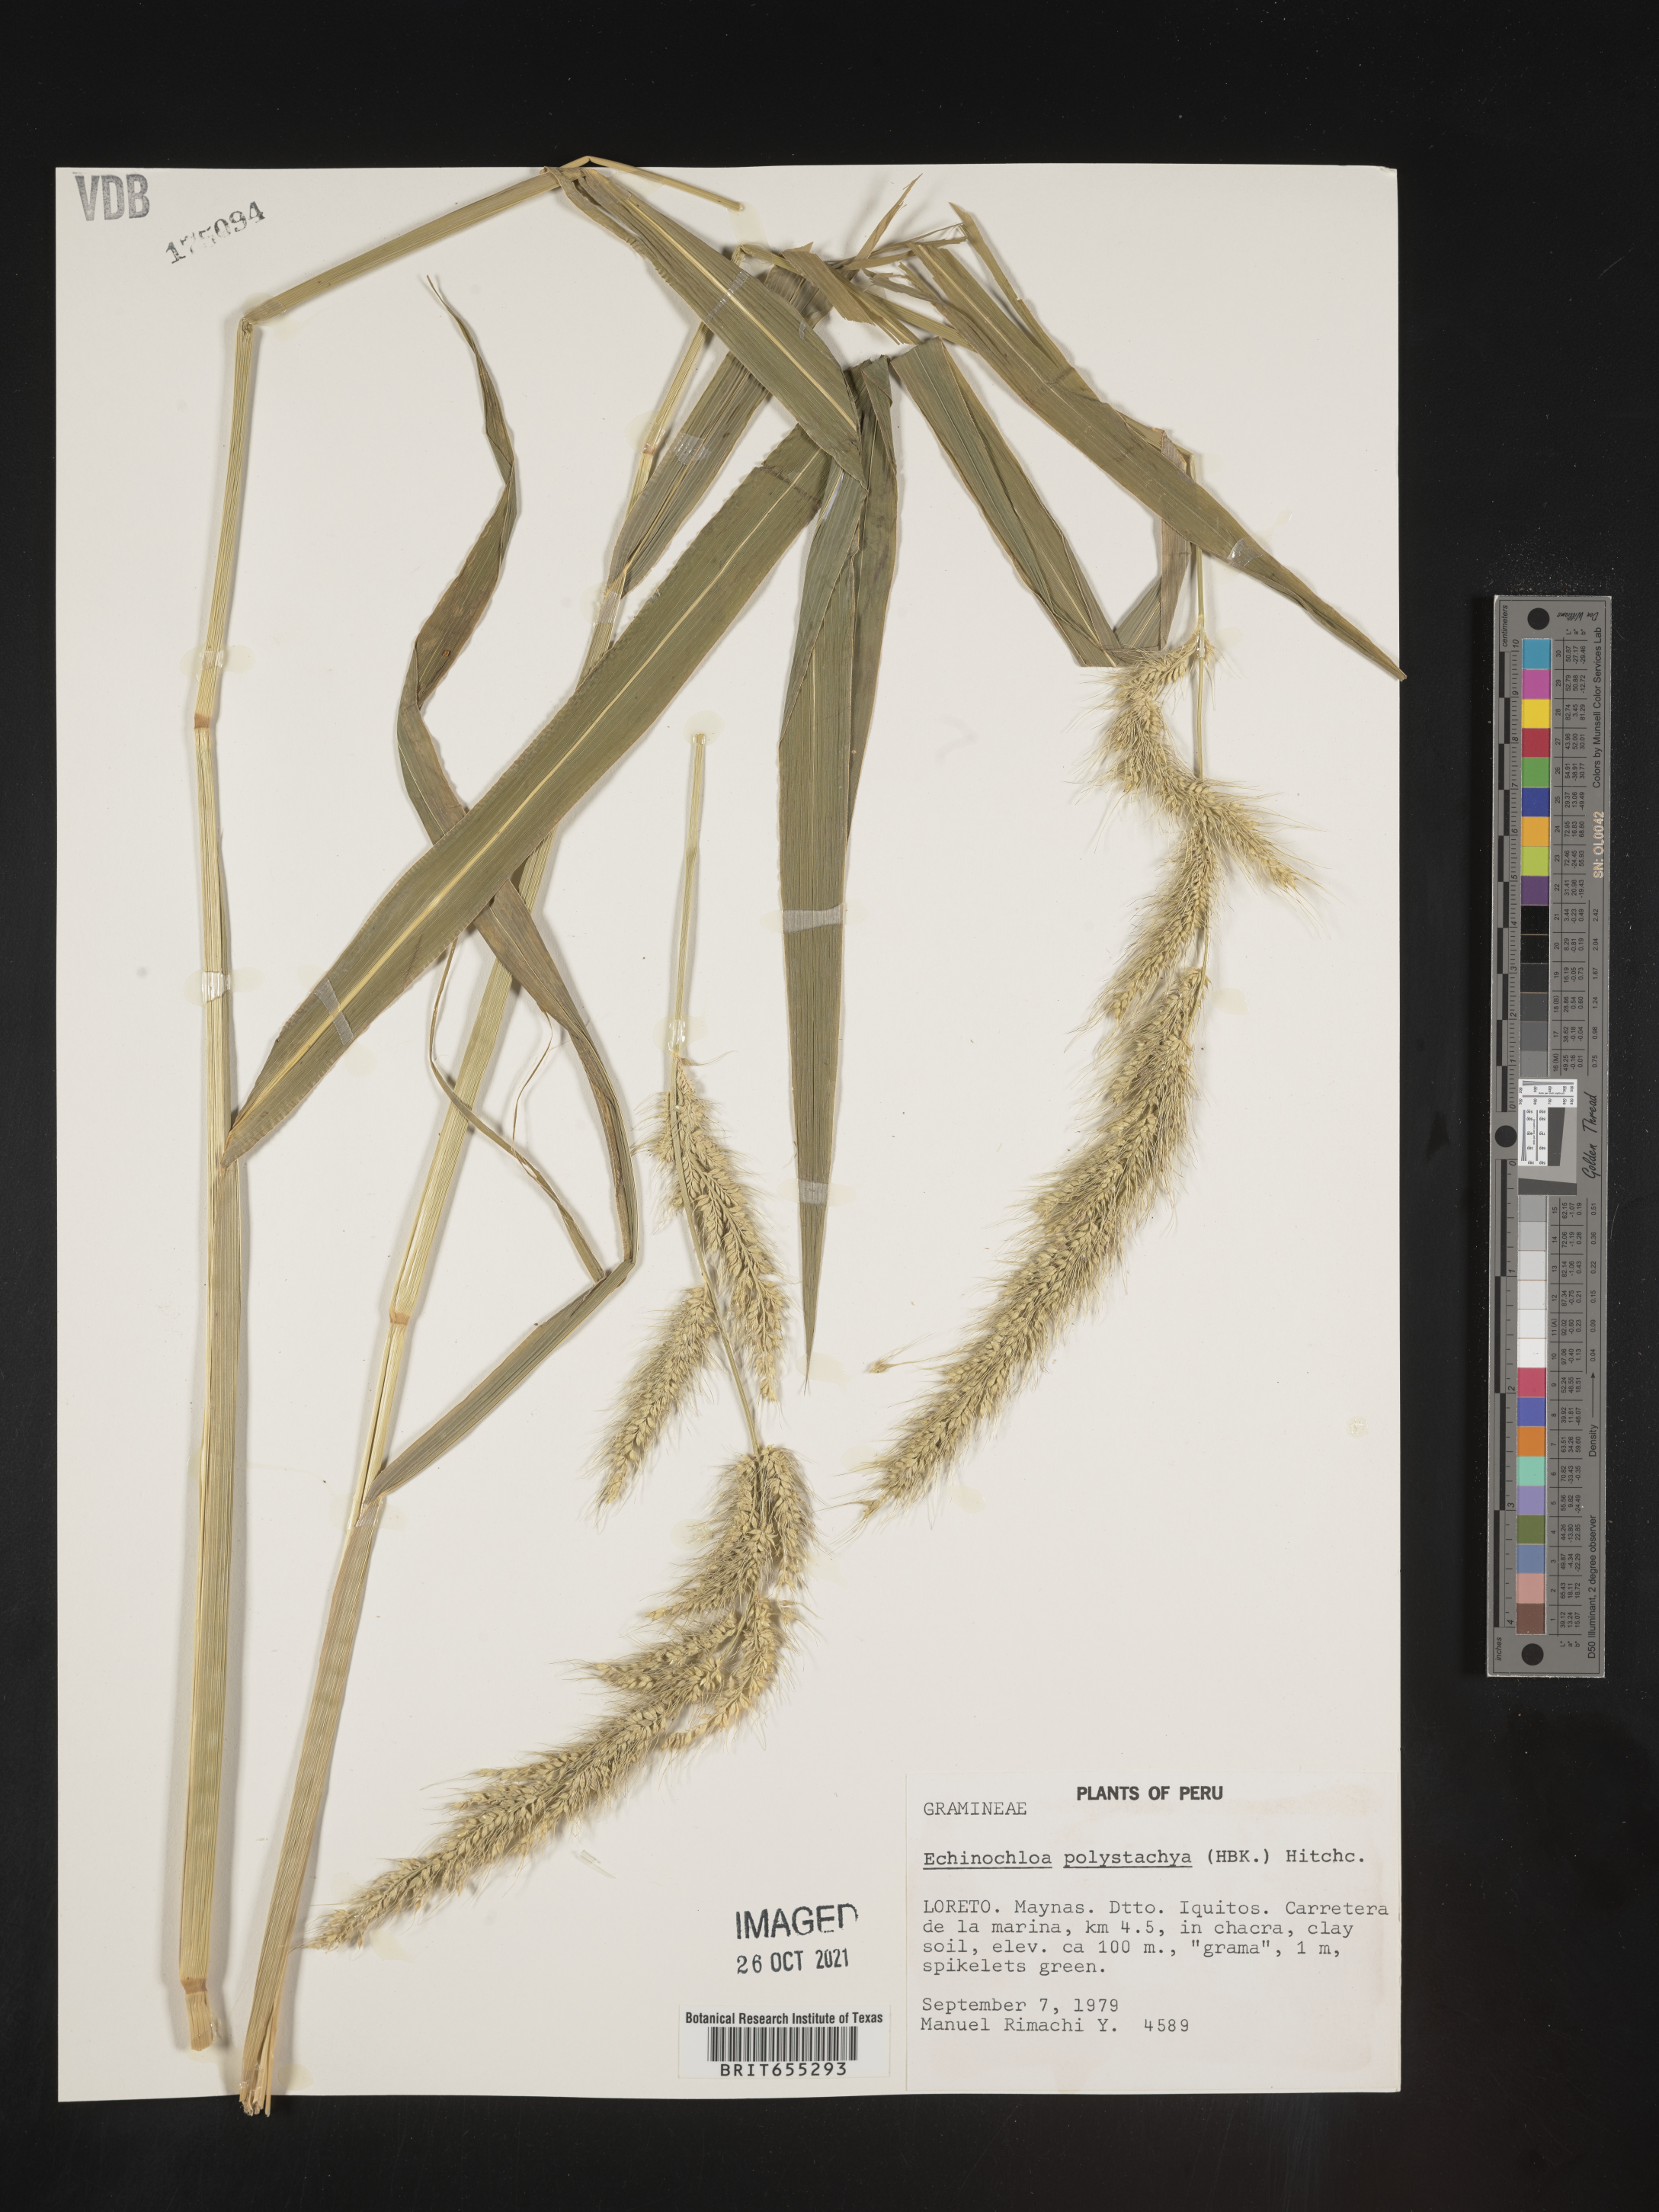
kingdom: Plantae
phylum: Tracheophyta
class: Liliopsida
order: Poales
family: Poaceae
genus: Echinochloa
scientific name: Echinochloa
